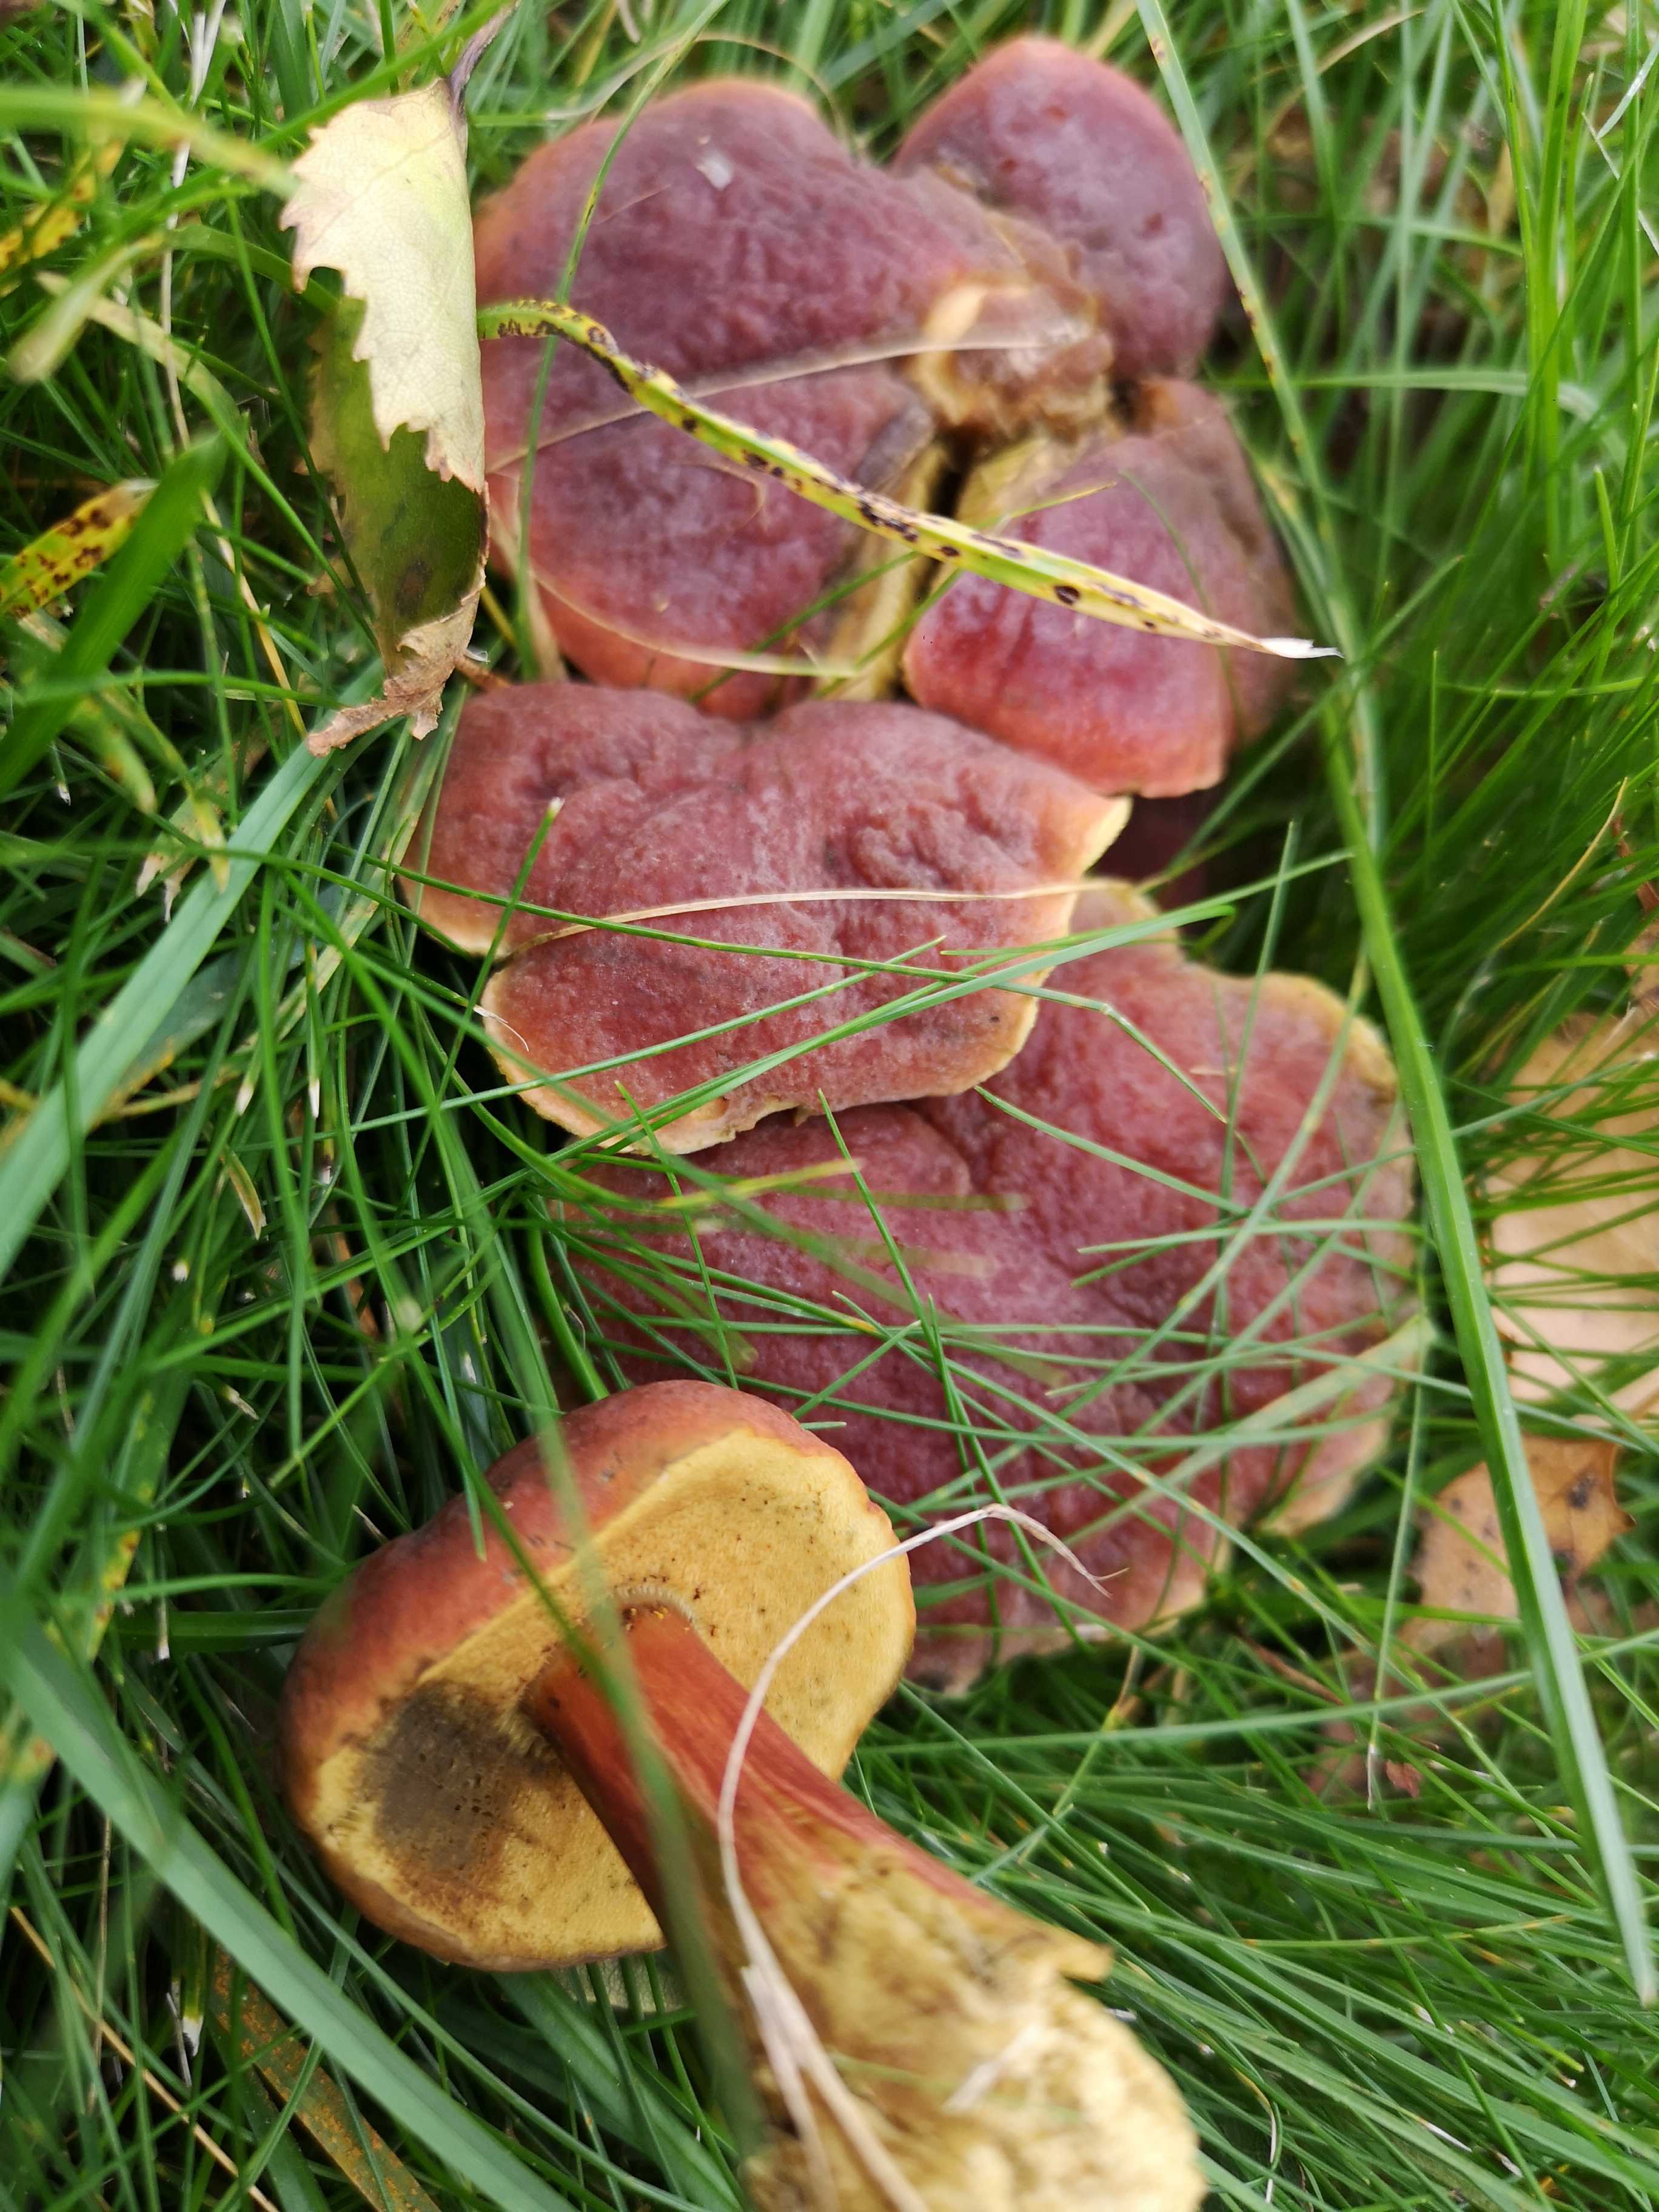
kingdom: Fungi
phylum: Basidiomycota
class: Agaricomycetes
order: Boletales
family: Boletaceae
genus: Hortiboletus
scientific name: Hortiboletus
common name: dværgrørhat
